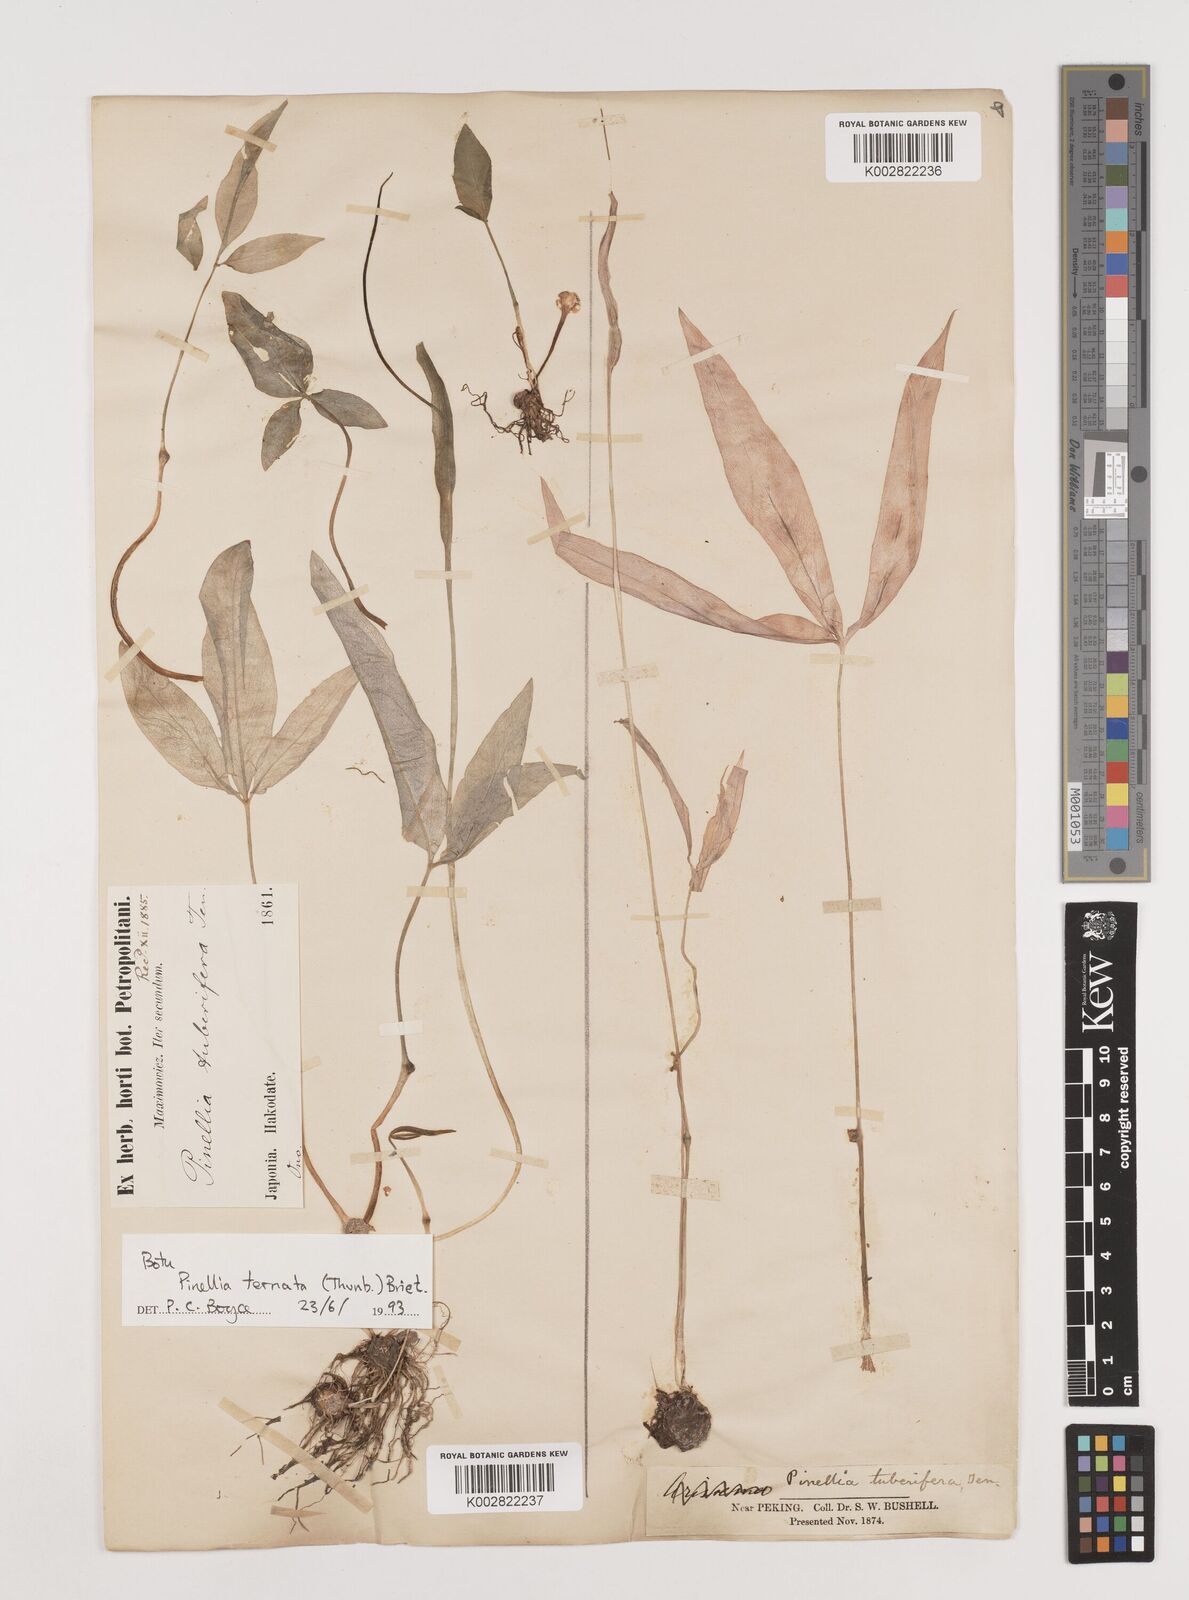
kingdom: Plantae
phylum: Tracheophyta
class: Liliopsida
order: Alismatales
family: Araceae
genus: Pinellia
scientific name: Pinellia ternata
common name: Pinellia
